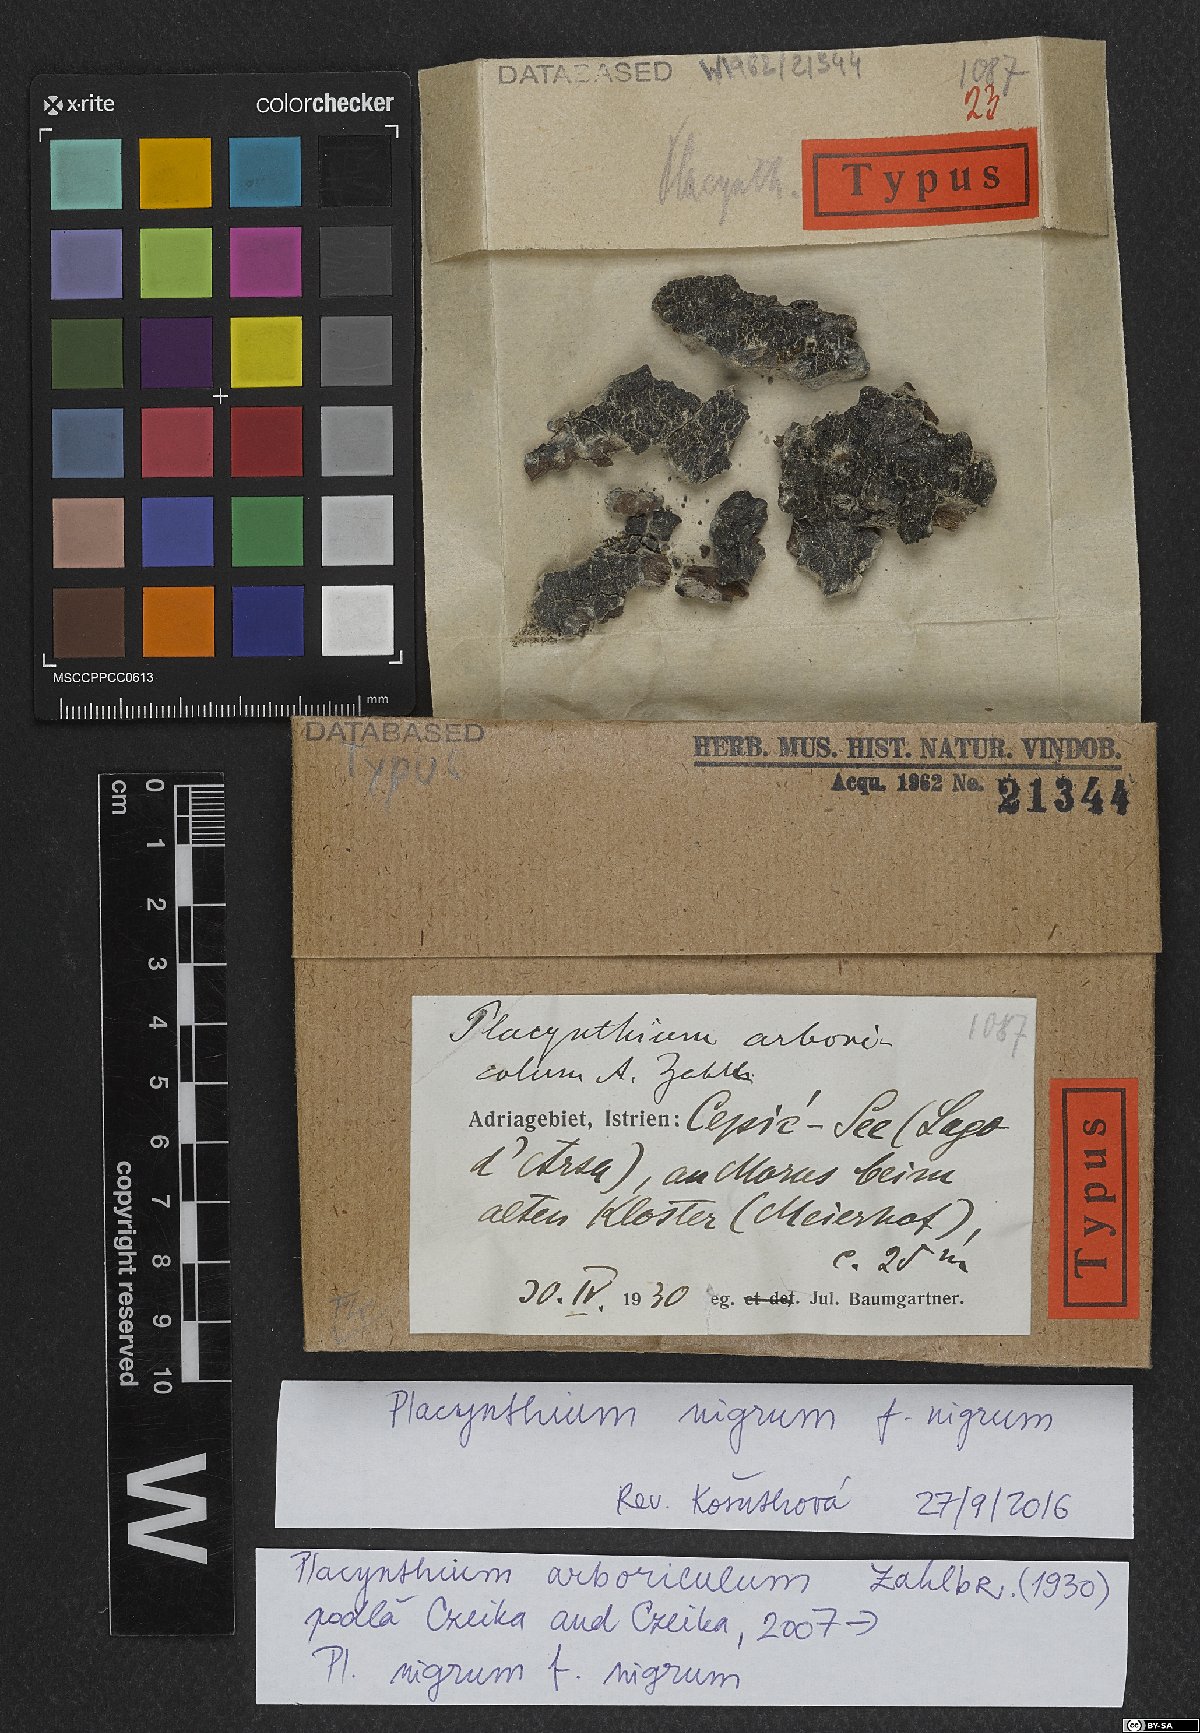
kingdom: Fungi
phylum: Ascomycota
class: Lecanoromycetes
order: Peltigerales
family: Placynthiaceae
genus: Placynthium
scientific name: Placynthium arboricola
